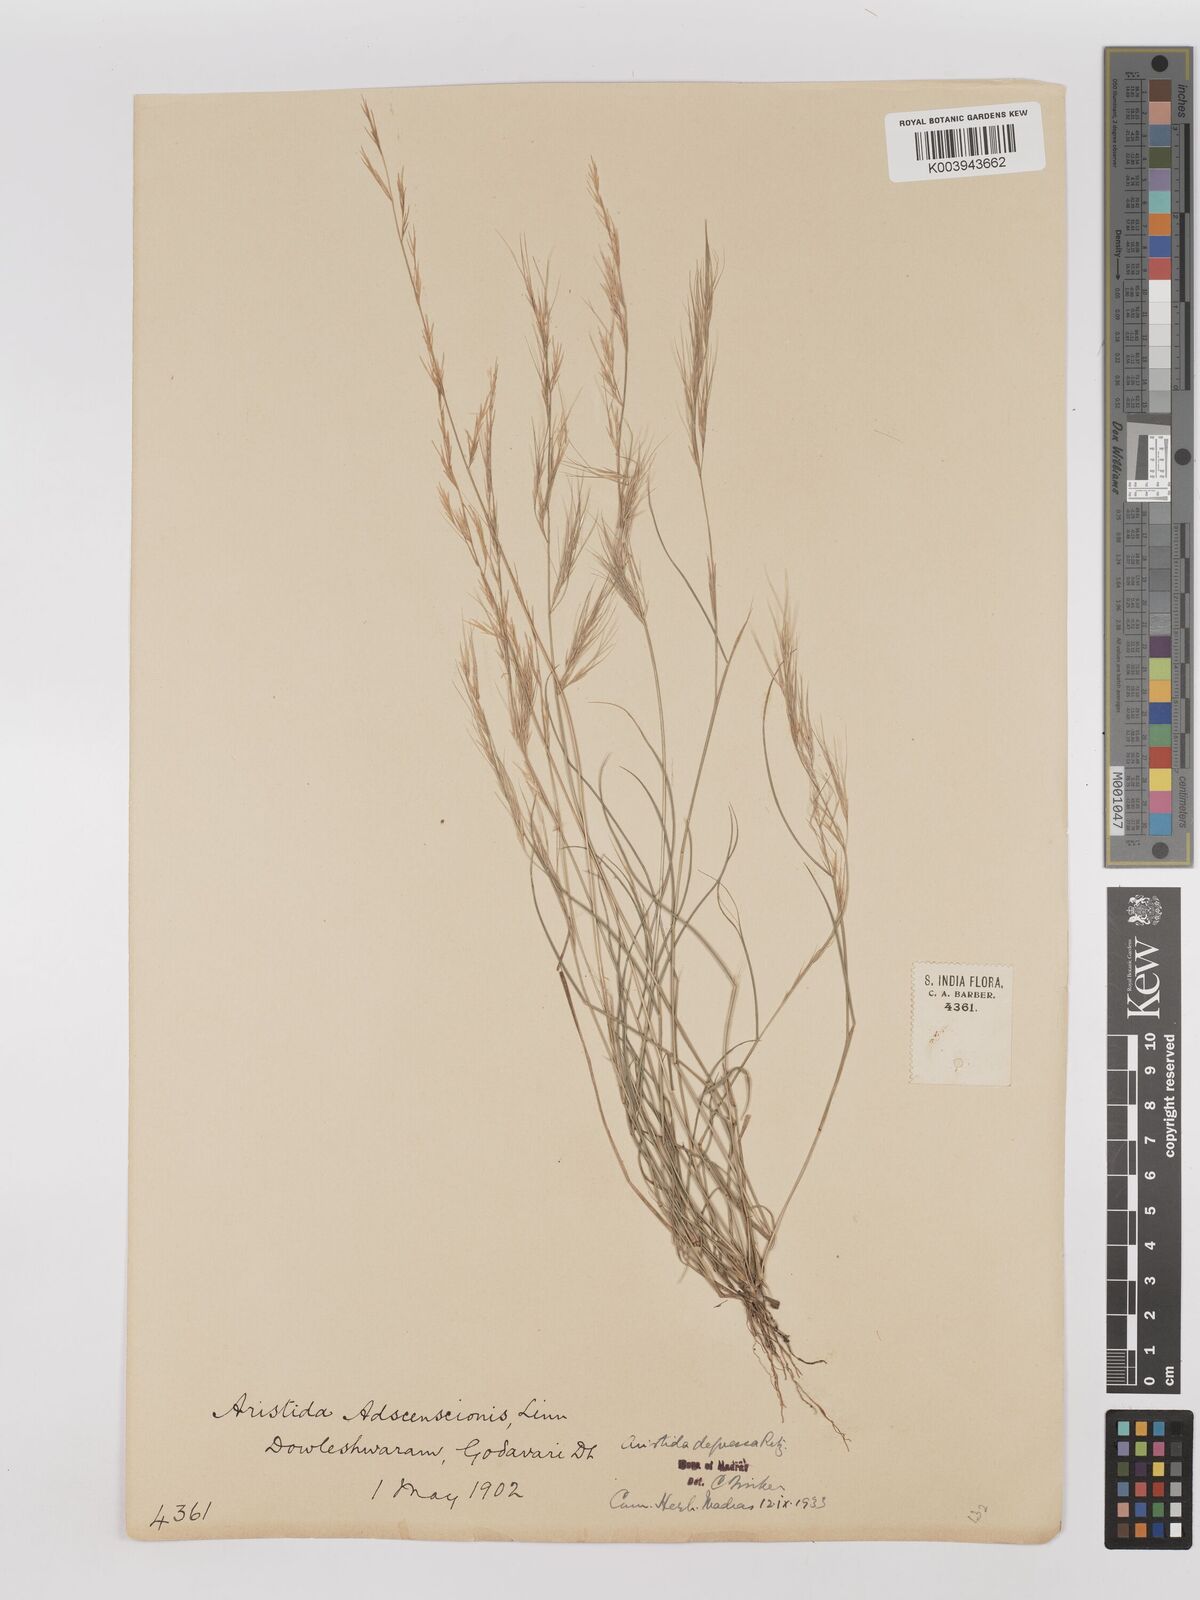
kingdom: Plantae
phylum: Tracheophyta
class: Liliopsida
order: Poales
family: Poaceae
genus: Aristida
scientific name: Aristida adscensionis
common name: Sixweeks threeawn
